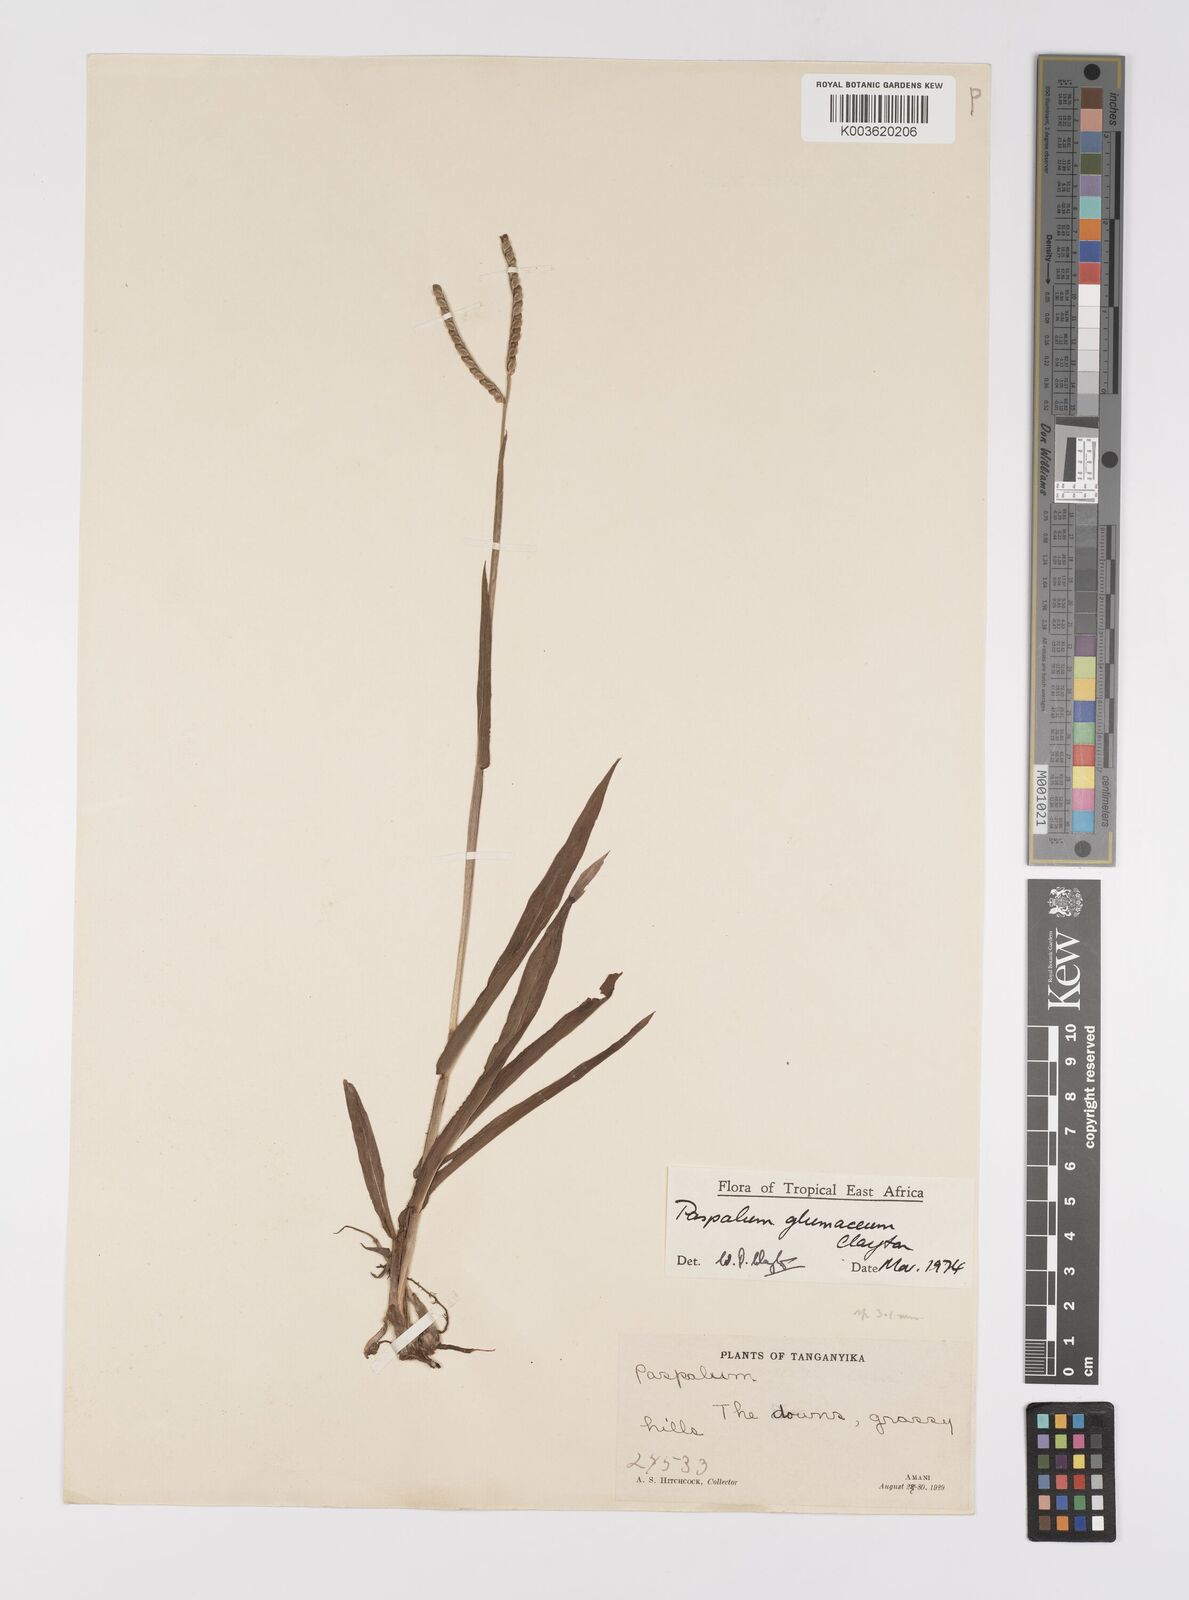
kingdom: Plantae
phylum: Tracheophyta
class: Liliopsida
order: Poales
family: Poaceae
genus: Paspalum
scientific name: Paspalum glumaceum
